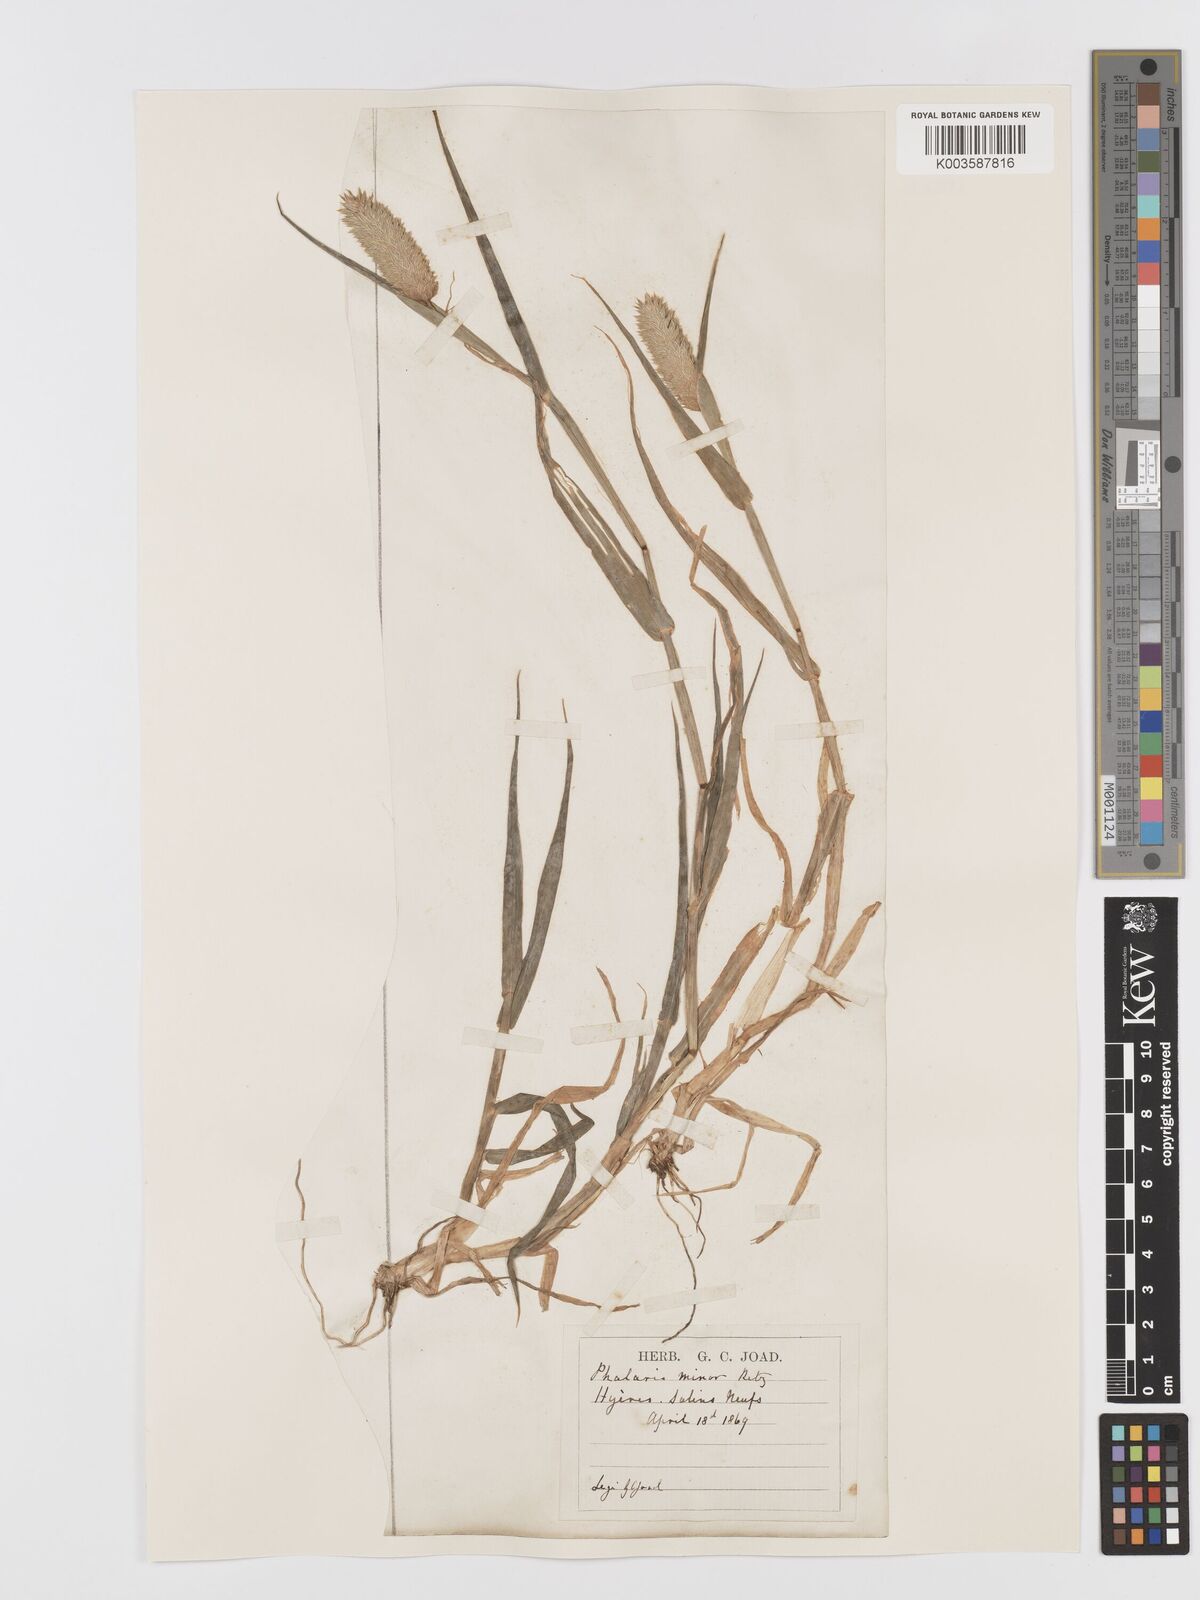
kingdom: Plantae
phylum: Tracheophyta
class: Liliopsida
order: Poales
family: Poaceae
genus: Phalaris
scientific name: Phalaris minor
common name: Littleseed canarygrass
